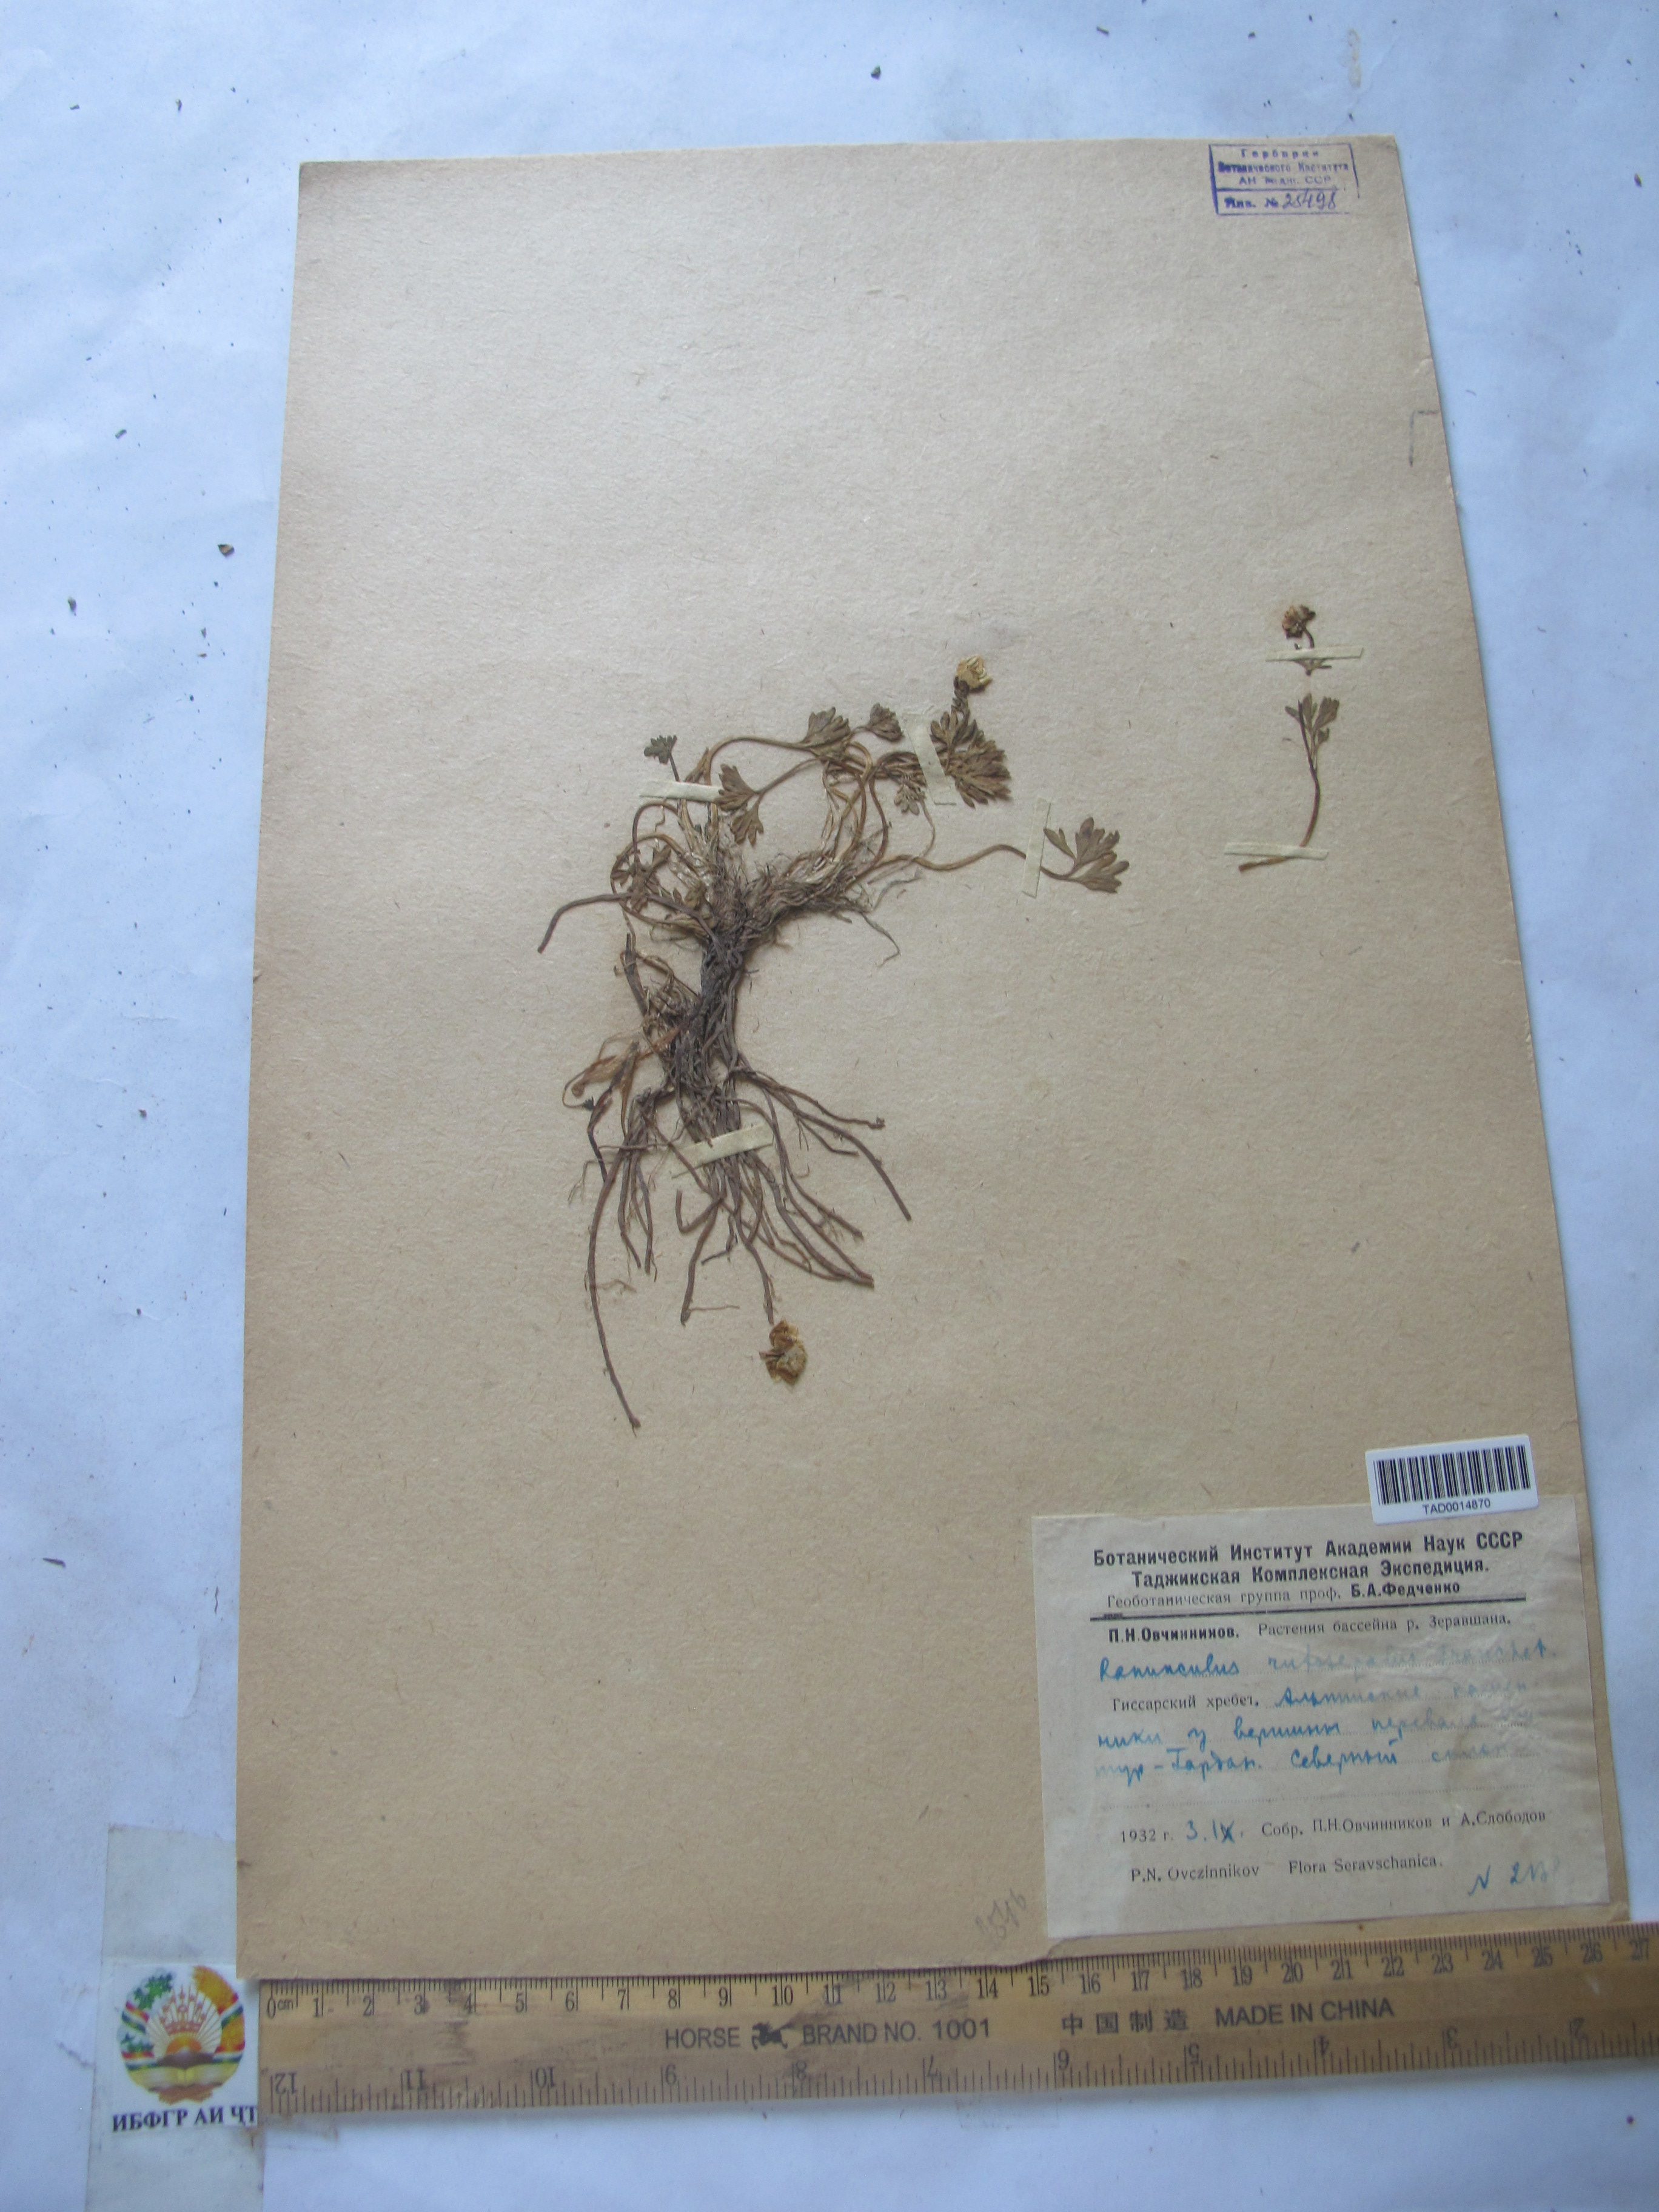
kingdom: Plantae
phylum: Tracheophyta
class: Magnoliopsida
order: Ranunculales
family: Ranunculaceae
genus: Ranunculus
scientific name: Ranunculus rufosepalus
